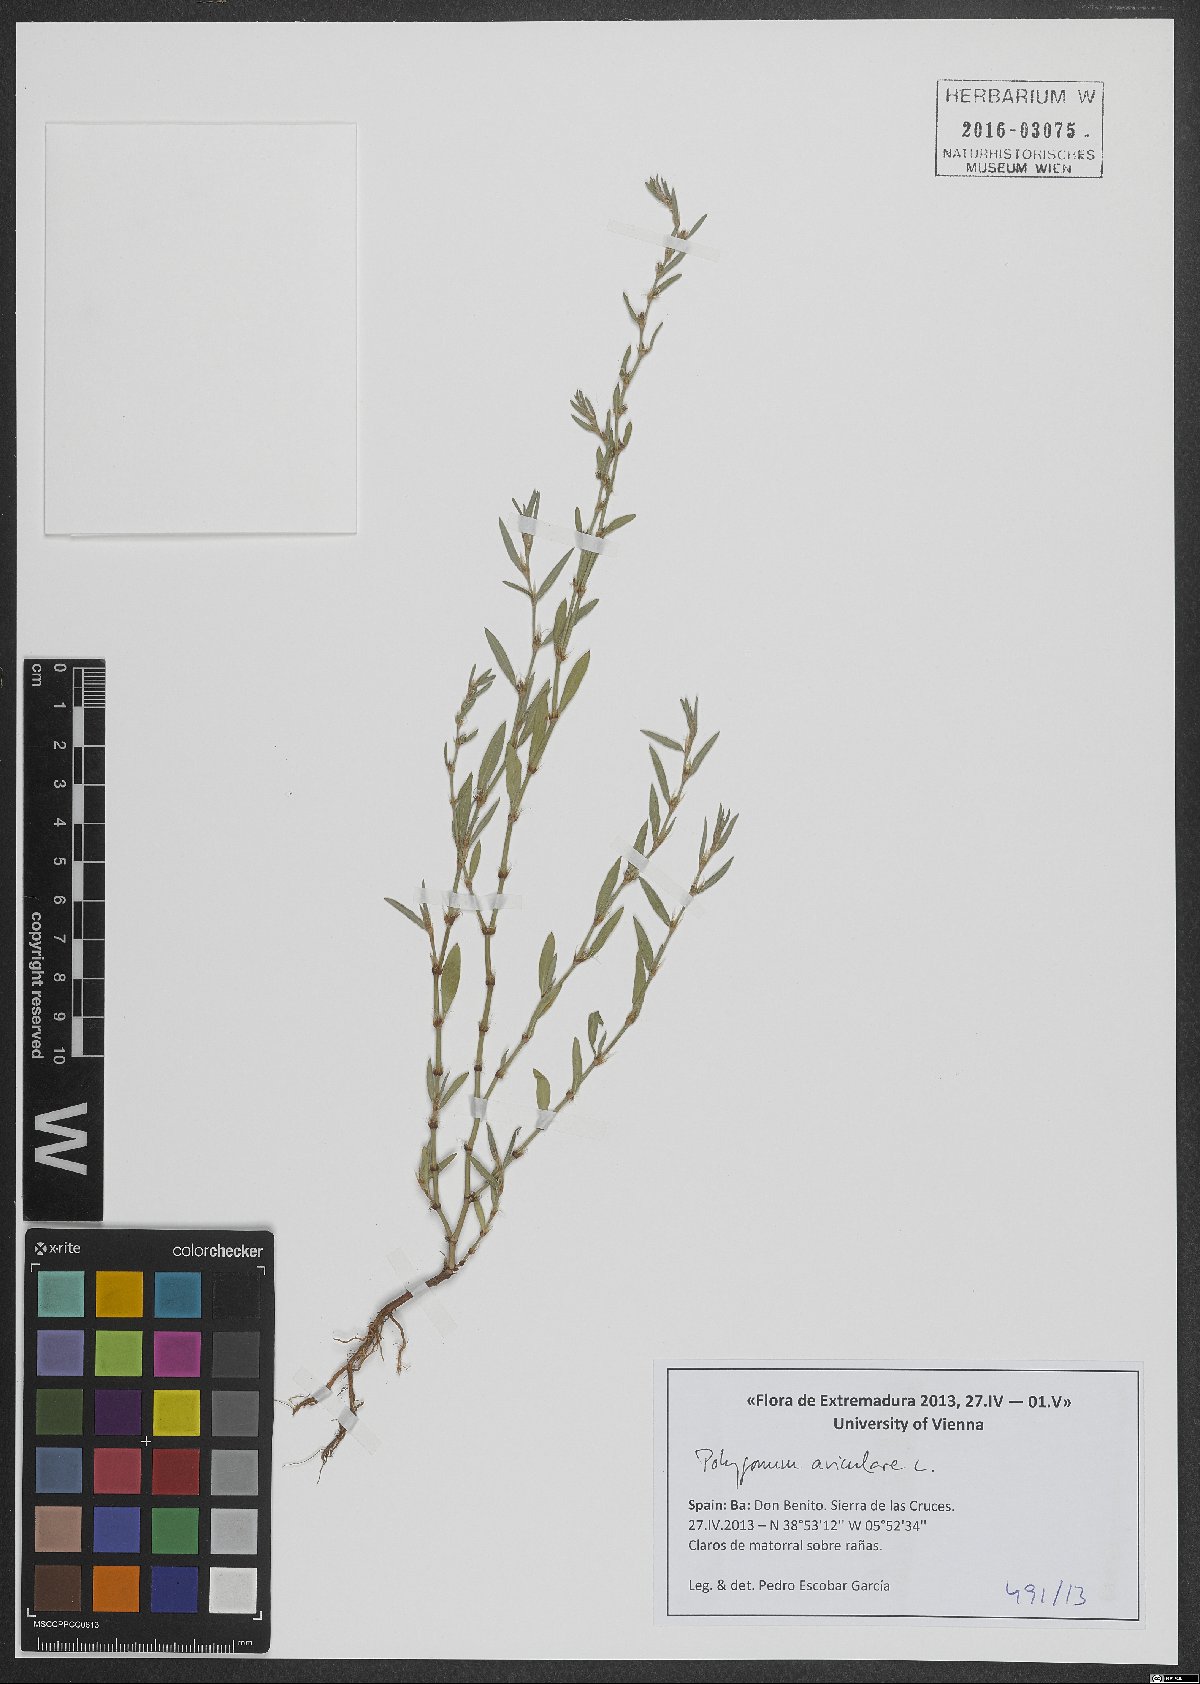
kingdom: Plantae
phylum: Tracheophyta
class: Magnoliopsida
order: Caryophyllales
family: Polygonaceae
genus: Polygonum
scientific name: Polygonum aviculare
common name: Prostrate knotweed
